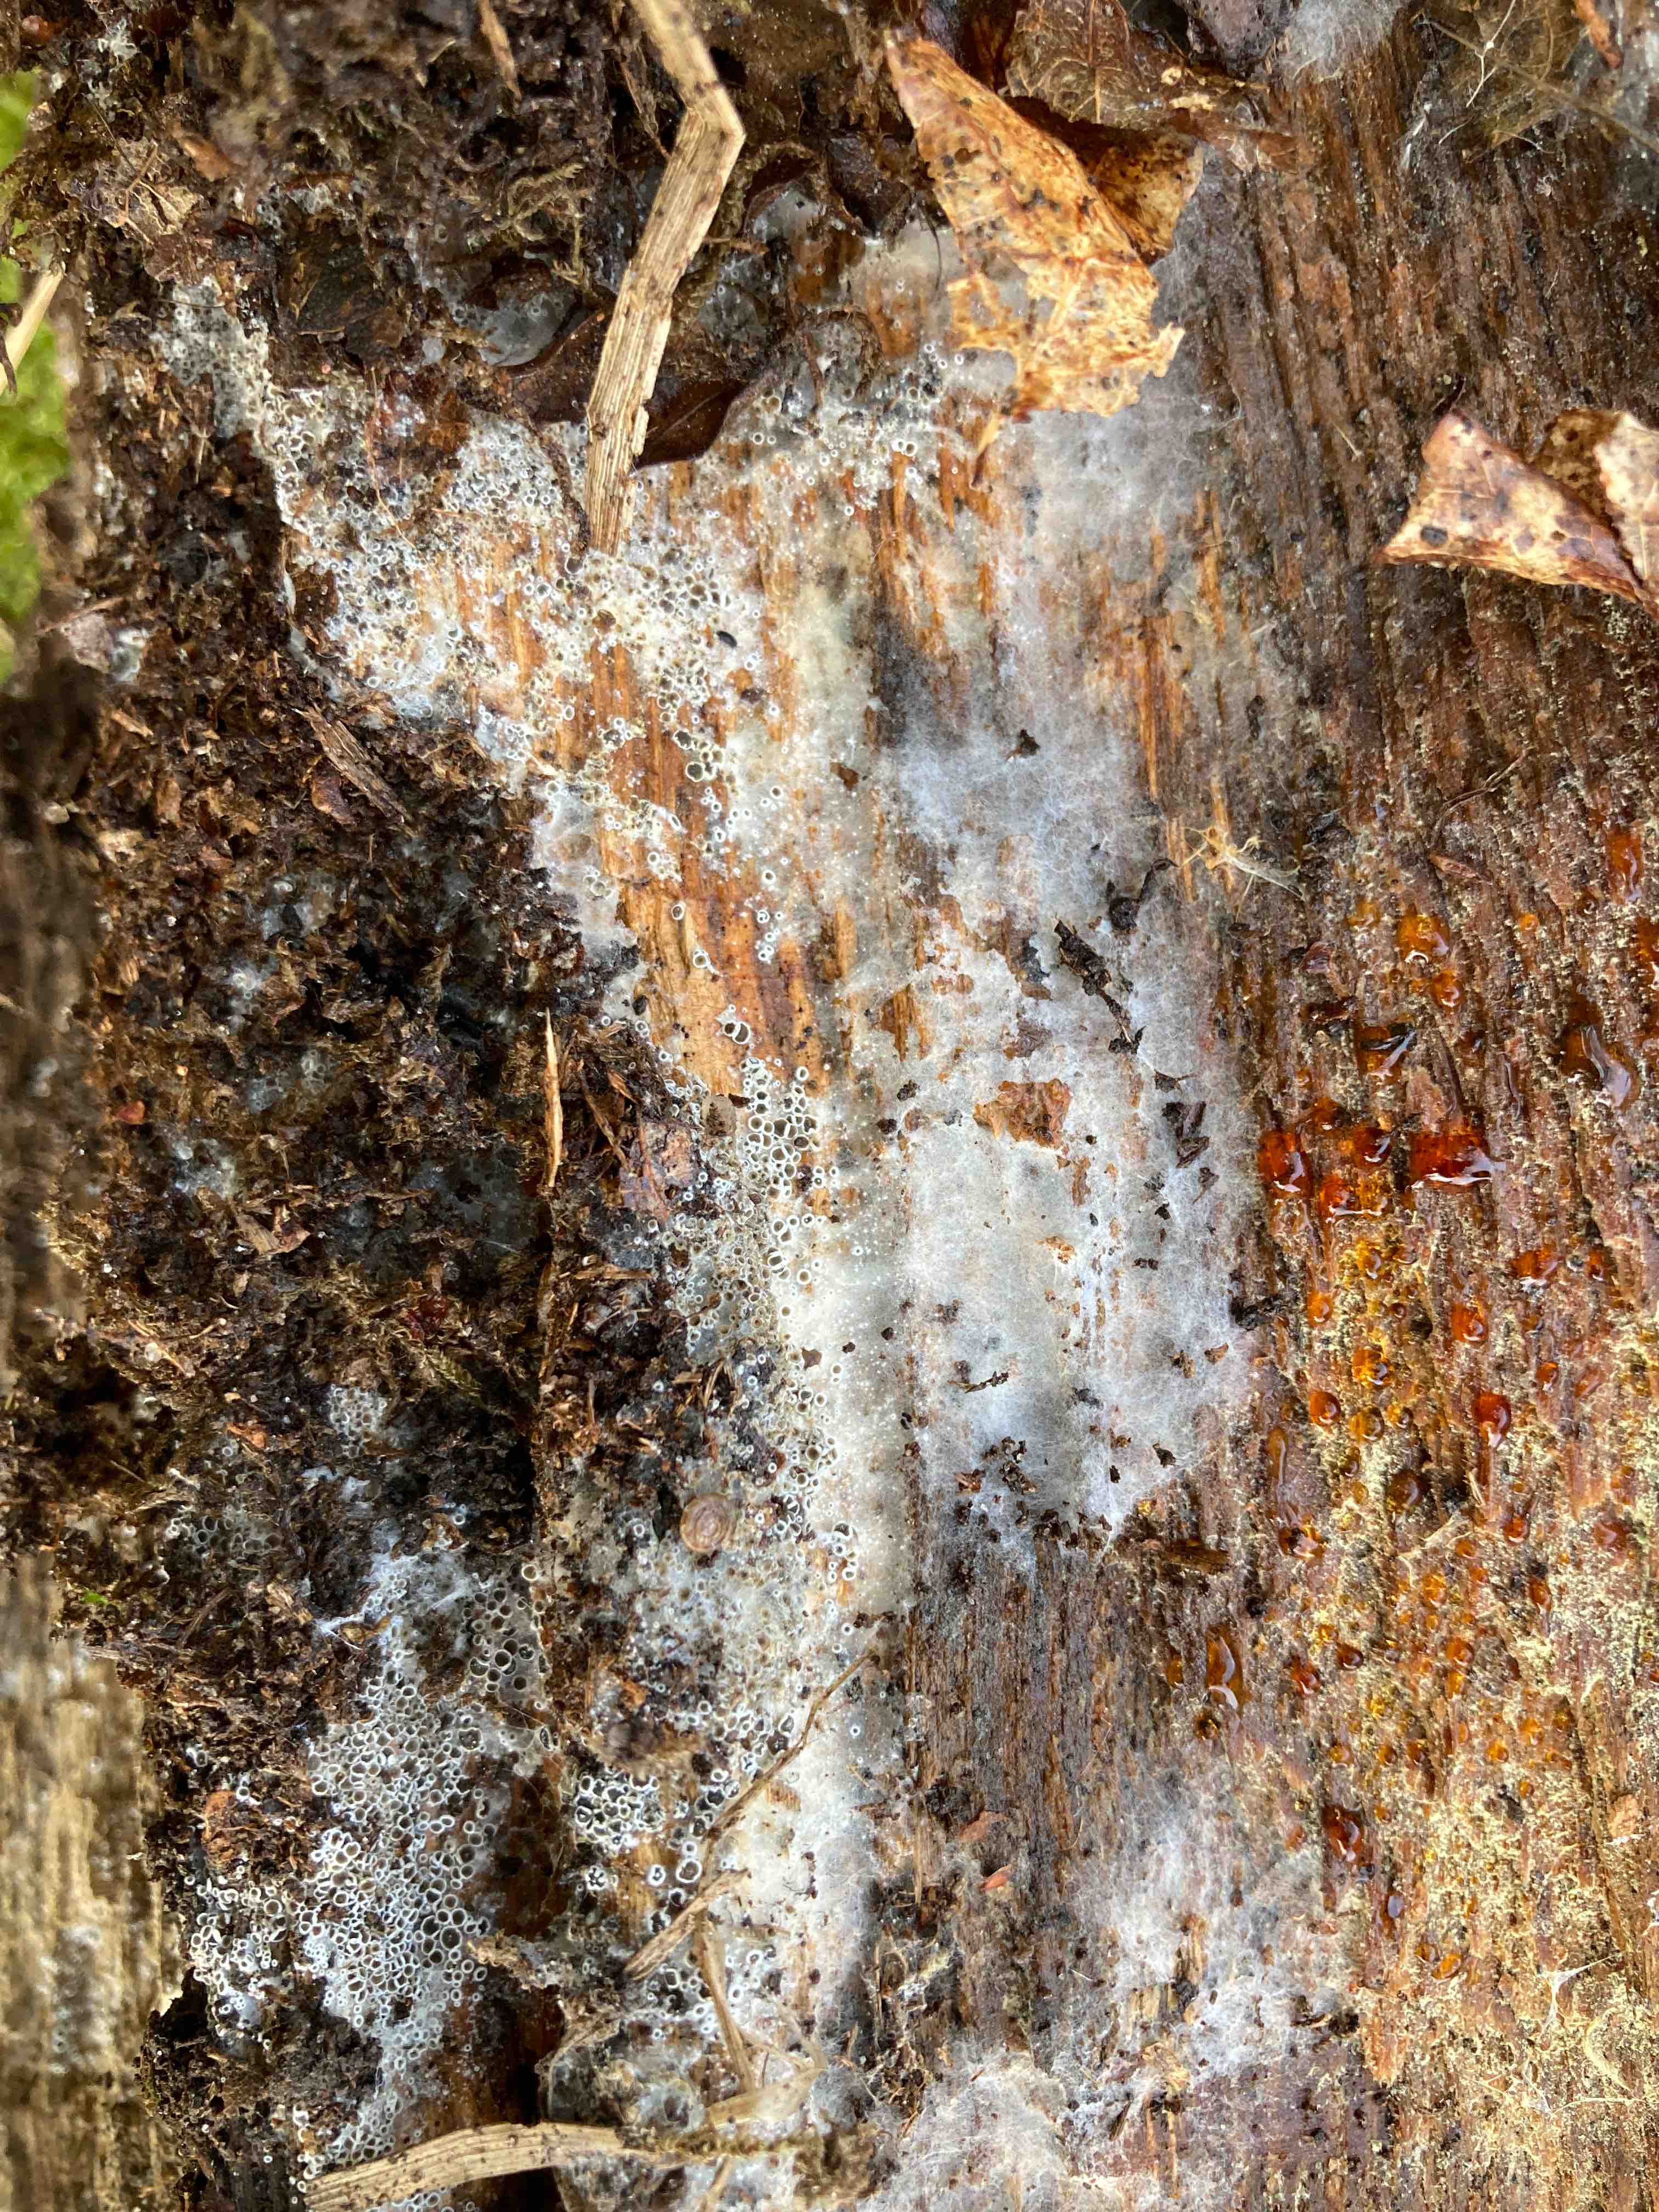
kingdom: Fungi
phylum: Ascomycota
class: Leotiomycetes
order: Helotiales
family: Arachnopezizaceae
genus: Eriopezia
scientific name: Eriopezia caesia
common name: ege-spindskive
